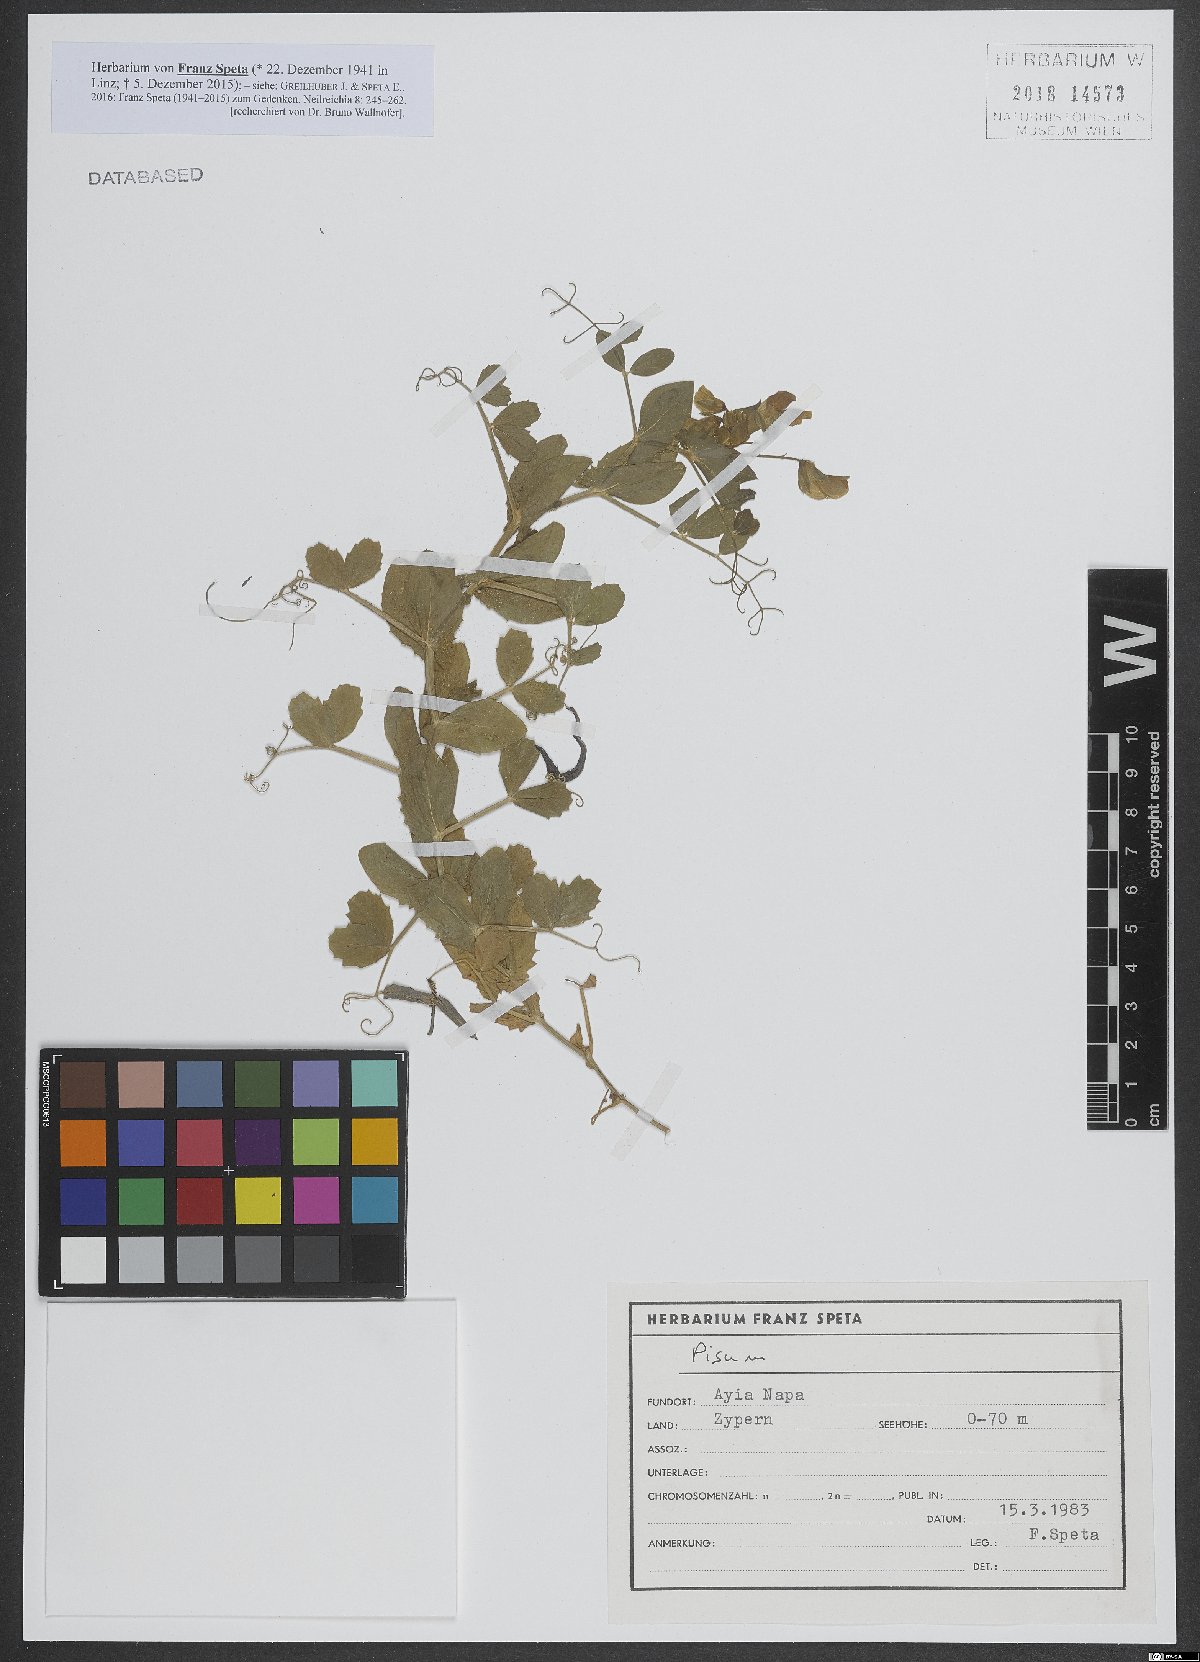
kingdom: Animalia
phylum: Mollusca
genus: Pisum
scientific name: Pisum
